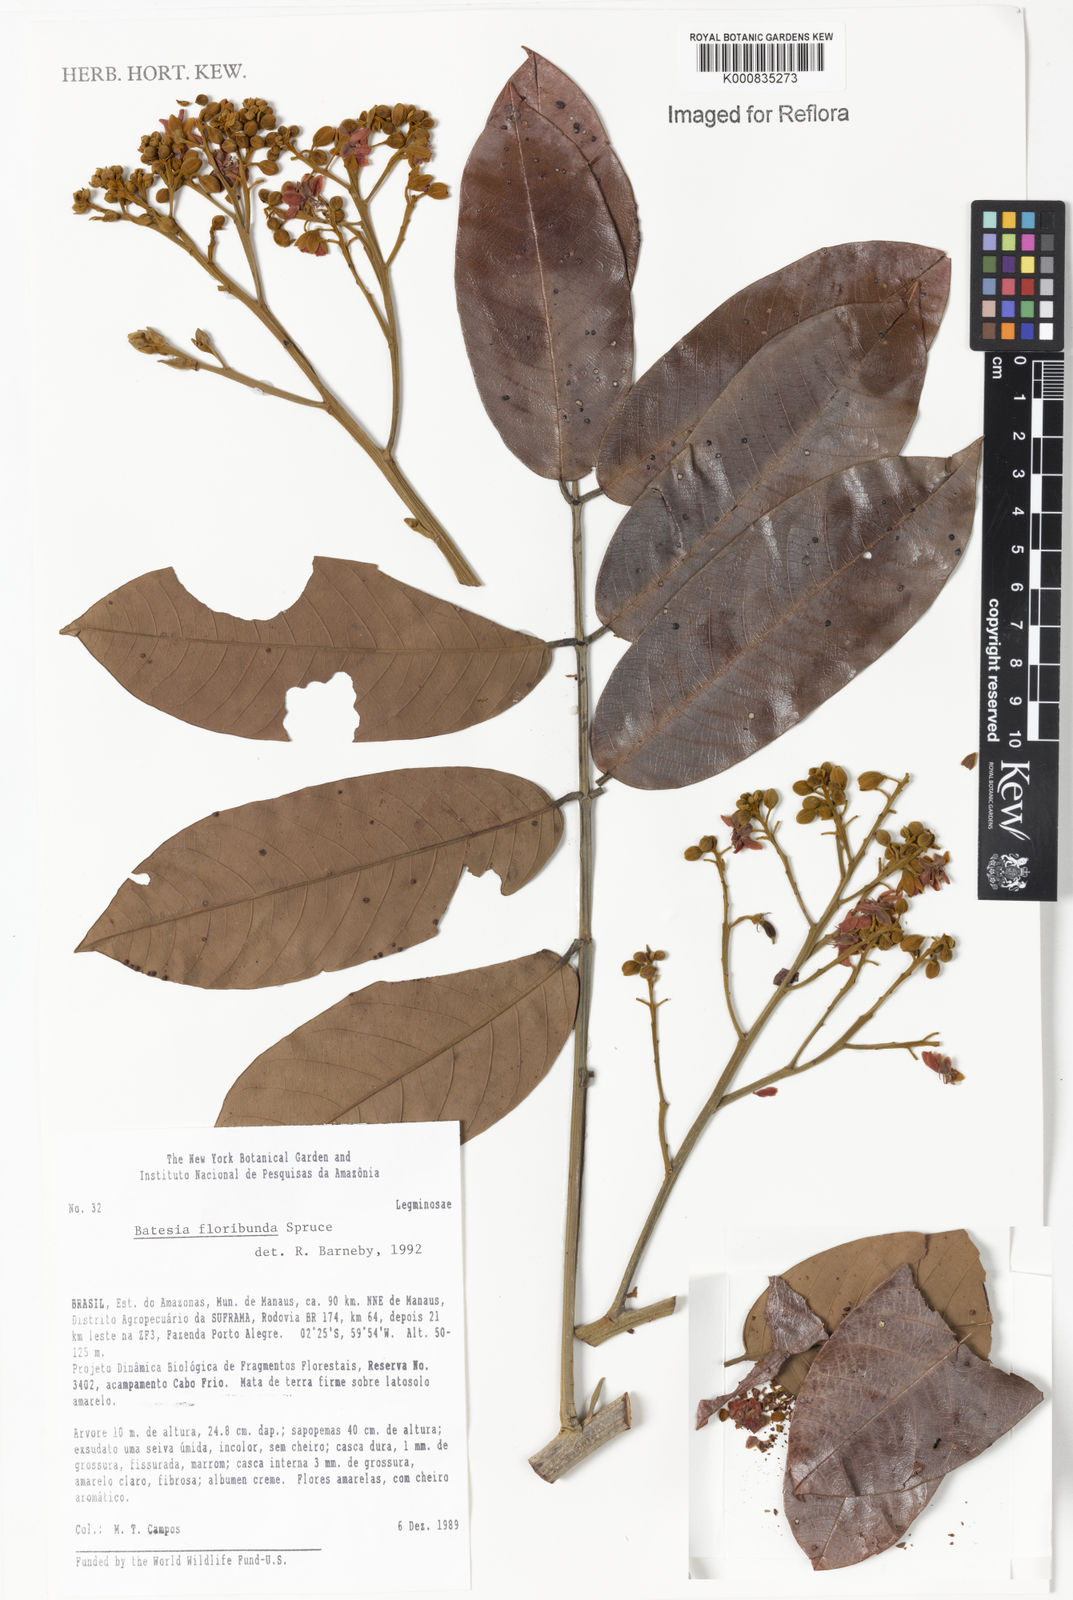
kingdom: Plantae
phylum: Tracheophyta
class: Magnoliopsida
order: Fabales
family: Fabaceae
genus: Batesia
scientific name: Batesia floribunda
